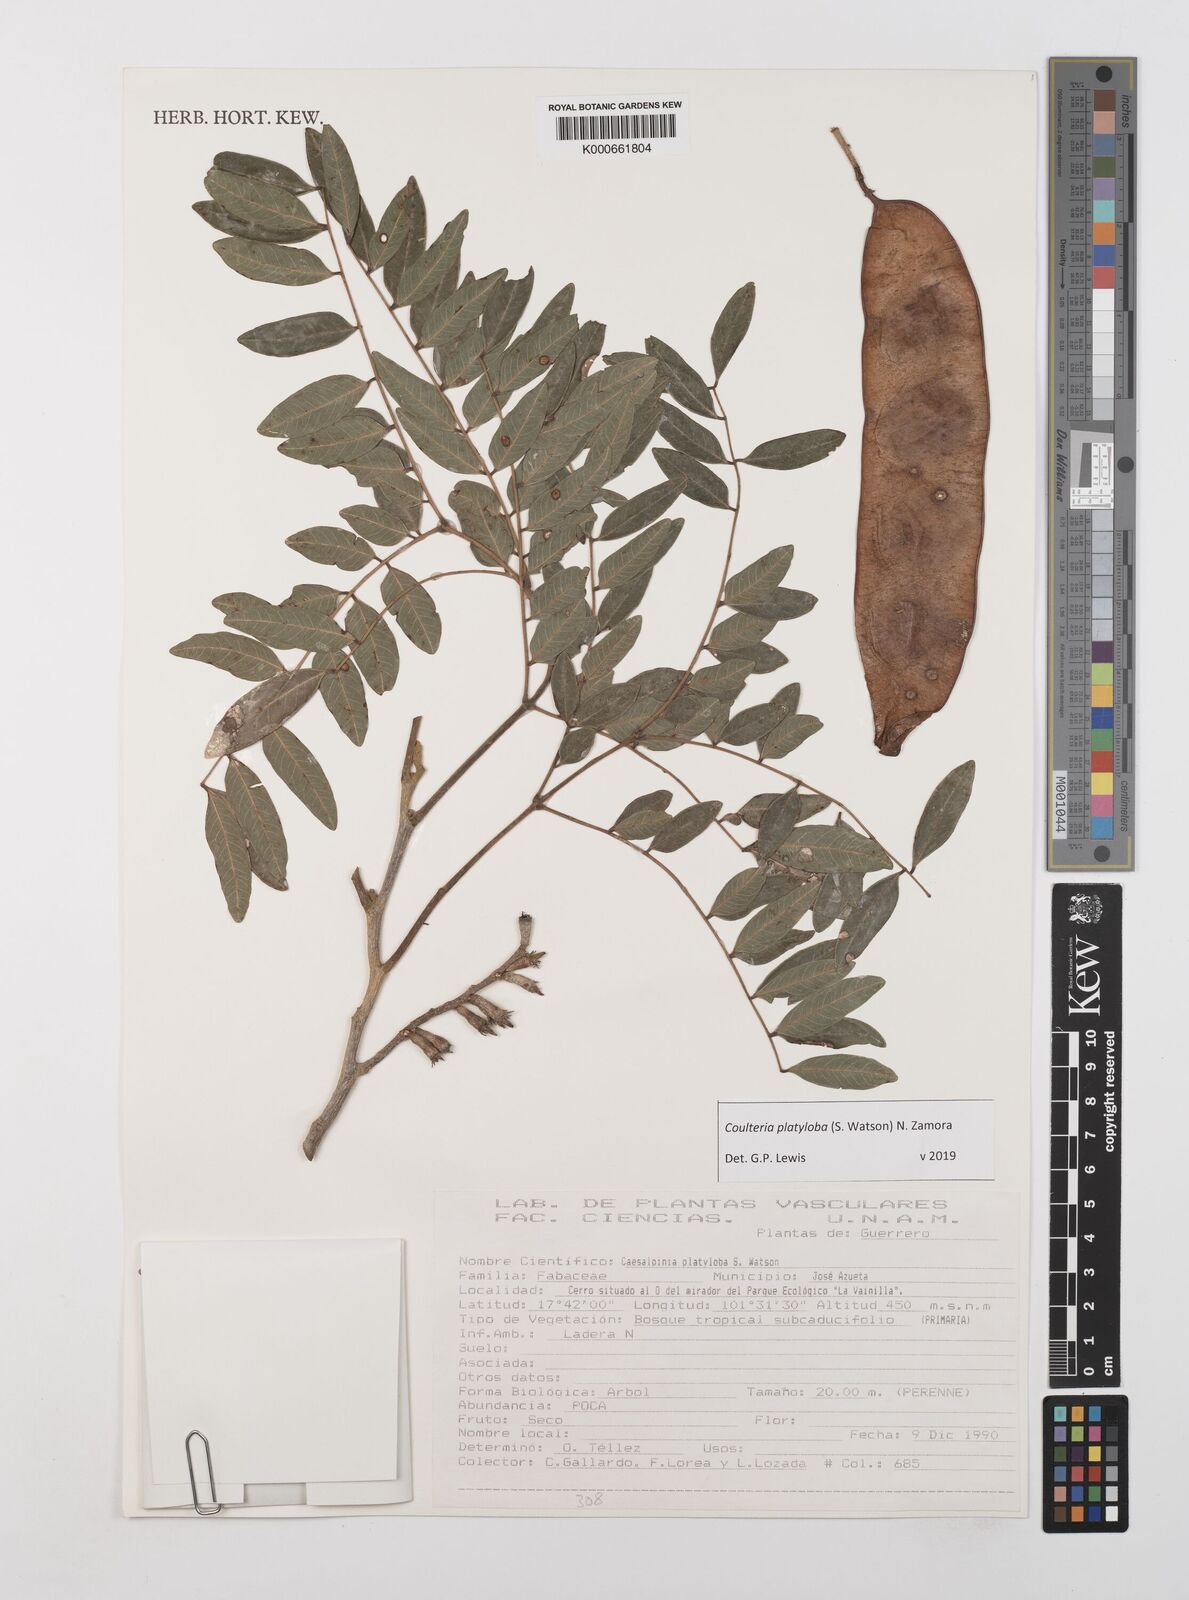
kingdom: Plantae
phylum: Tracheophyta
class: Magnoliopsida
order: Fabales
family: Fabaceae
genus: Coulteria
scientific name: Coulteria platyloba
